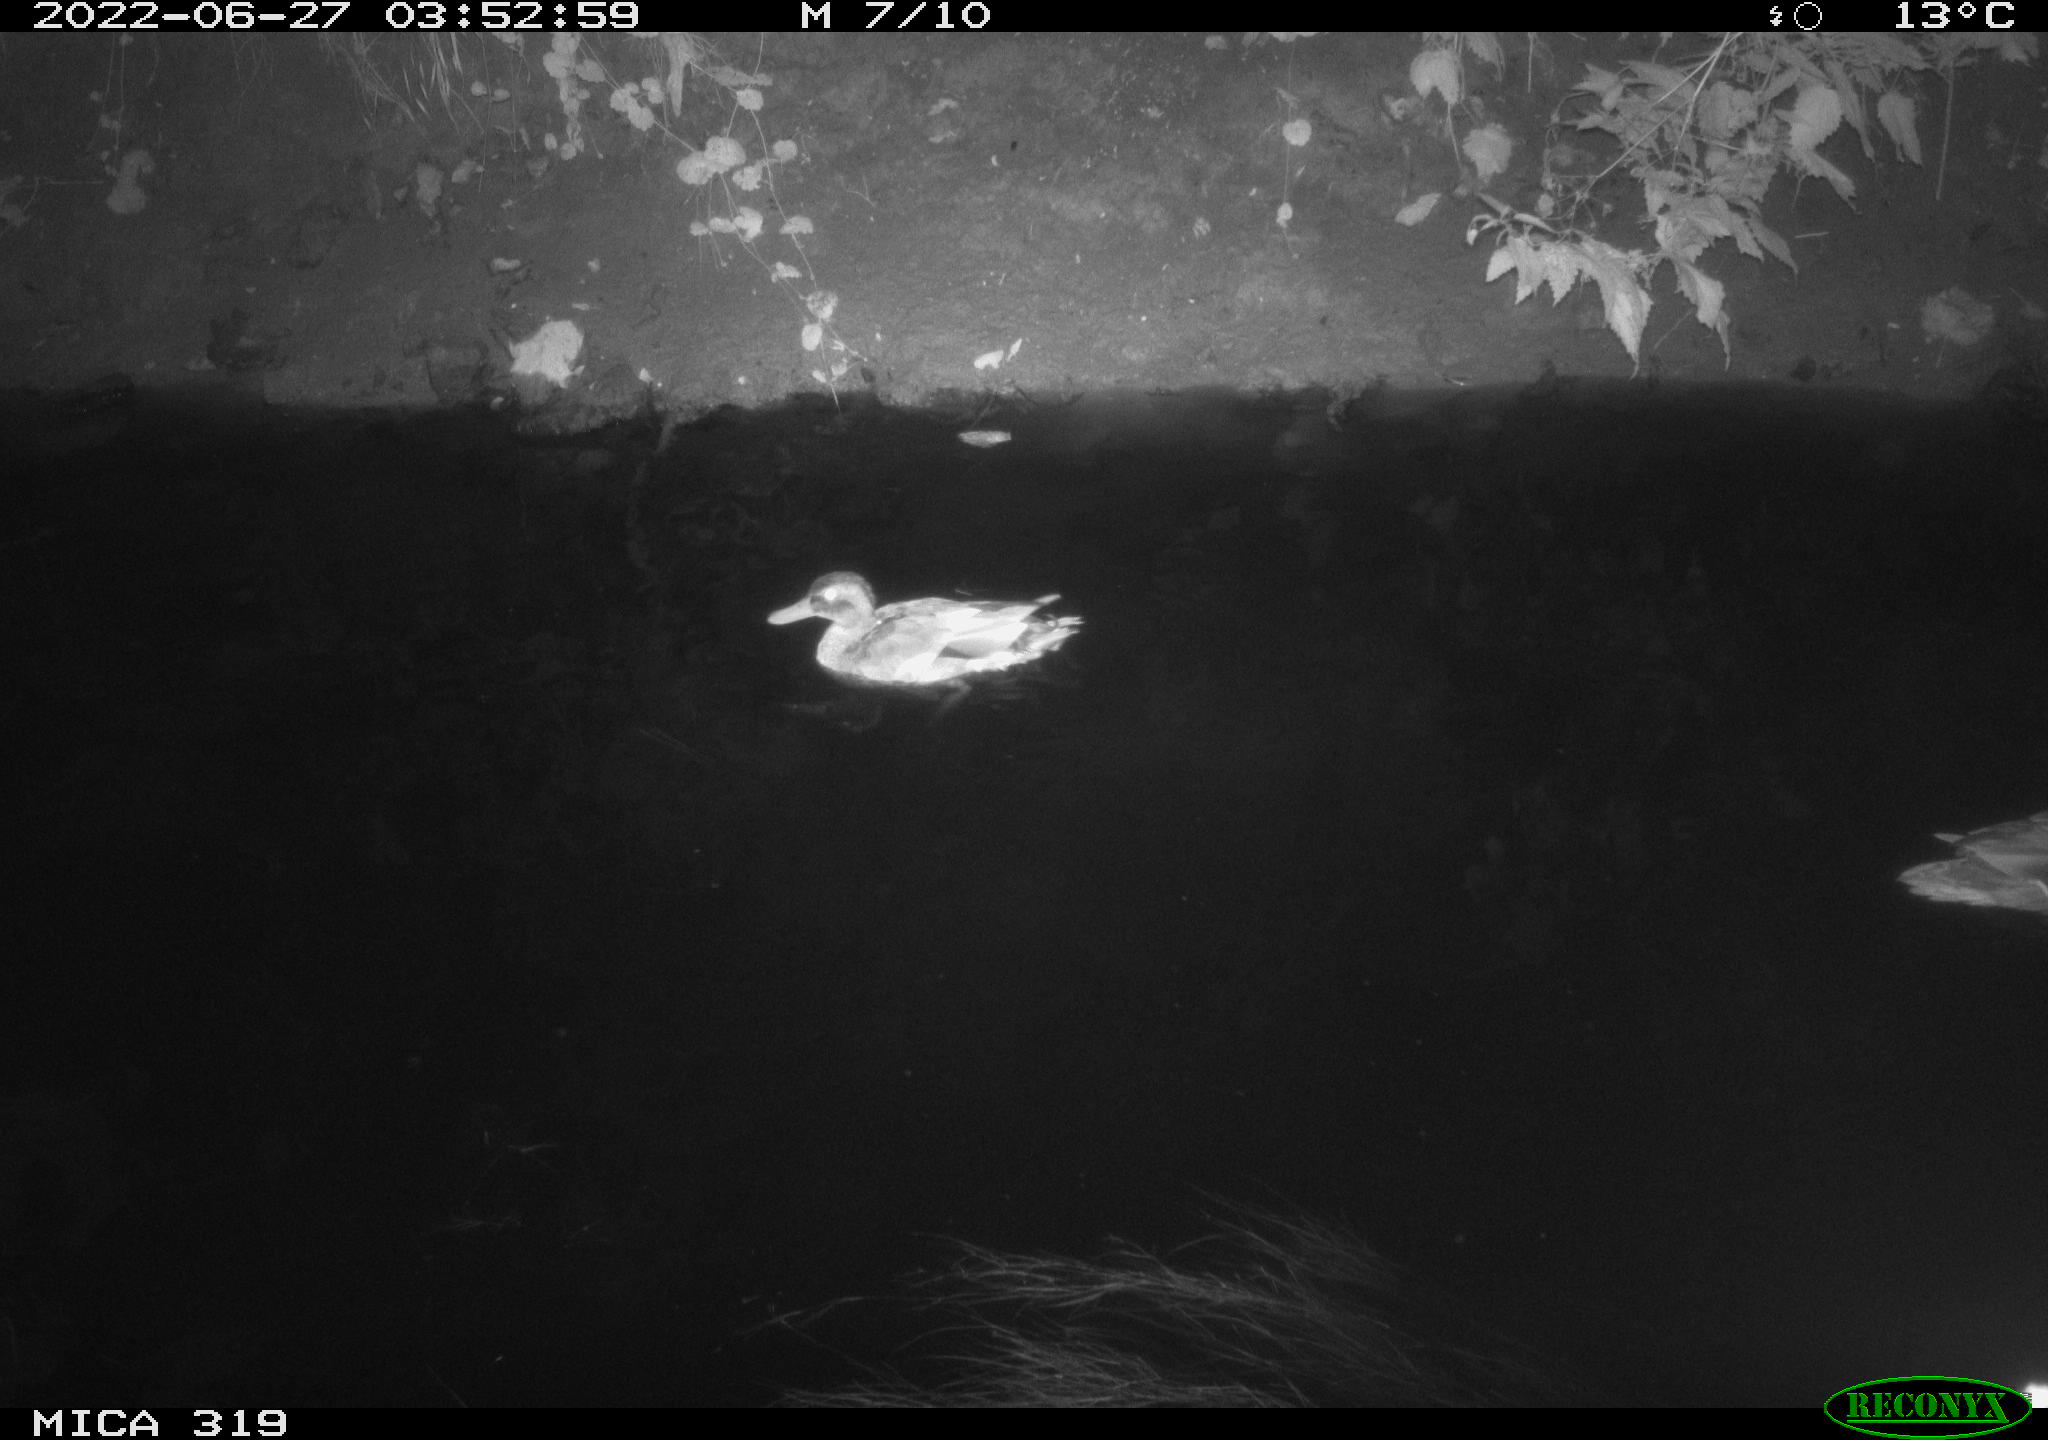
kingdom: Animalia
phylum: Chordata
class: Aves
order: Anseriformes
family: Anatidae
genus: Anas
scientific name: Anas platyrhynchos
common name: Mallard
